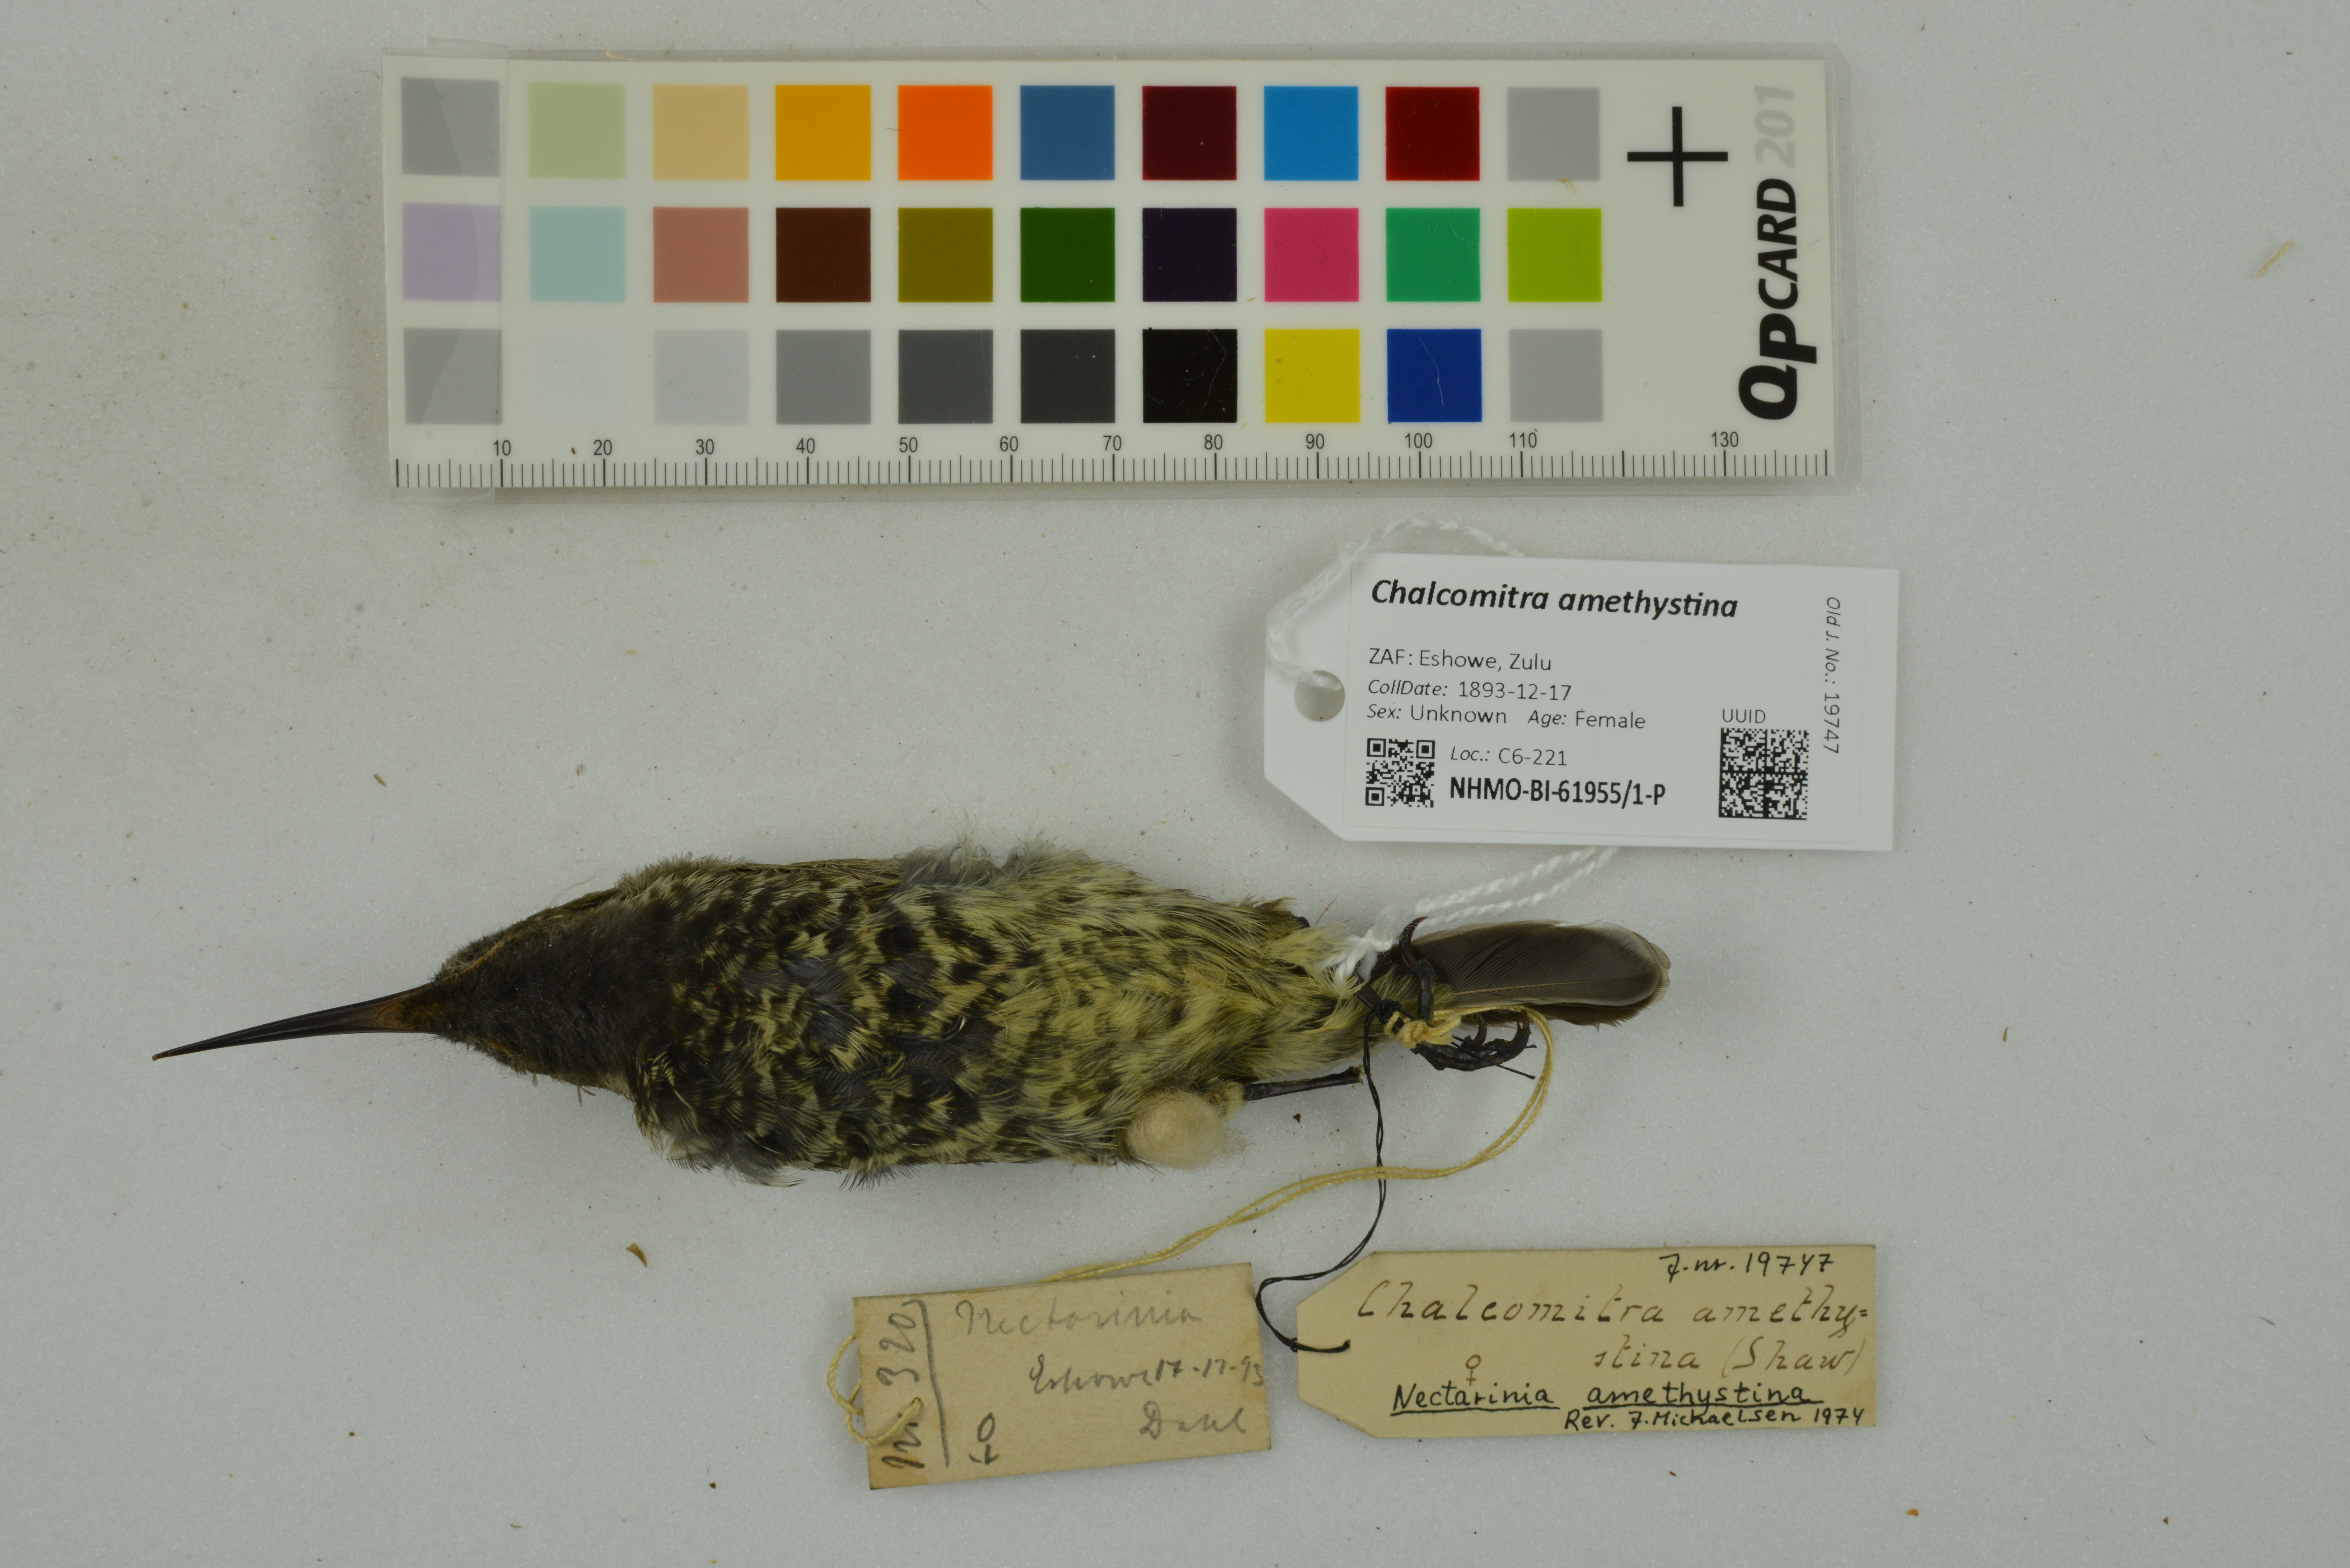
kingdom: Animalia
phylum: Chordata
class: Aves
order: Passeriformes
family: Nectariniidae
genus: Chalcomitra
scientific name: Chalcomitra amethystina
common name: Amethyst sunbird
